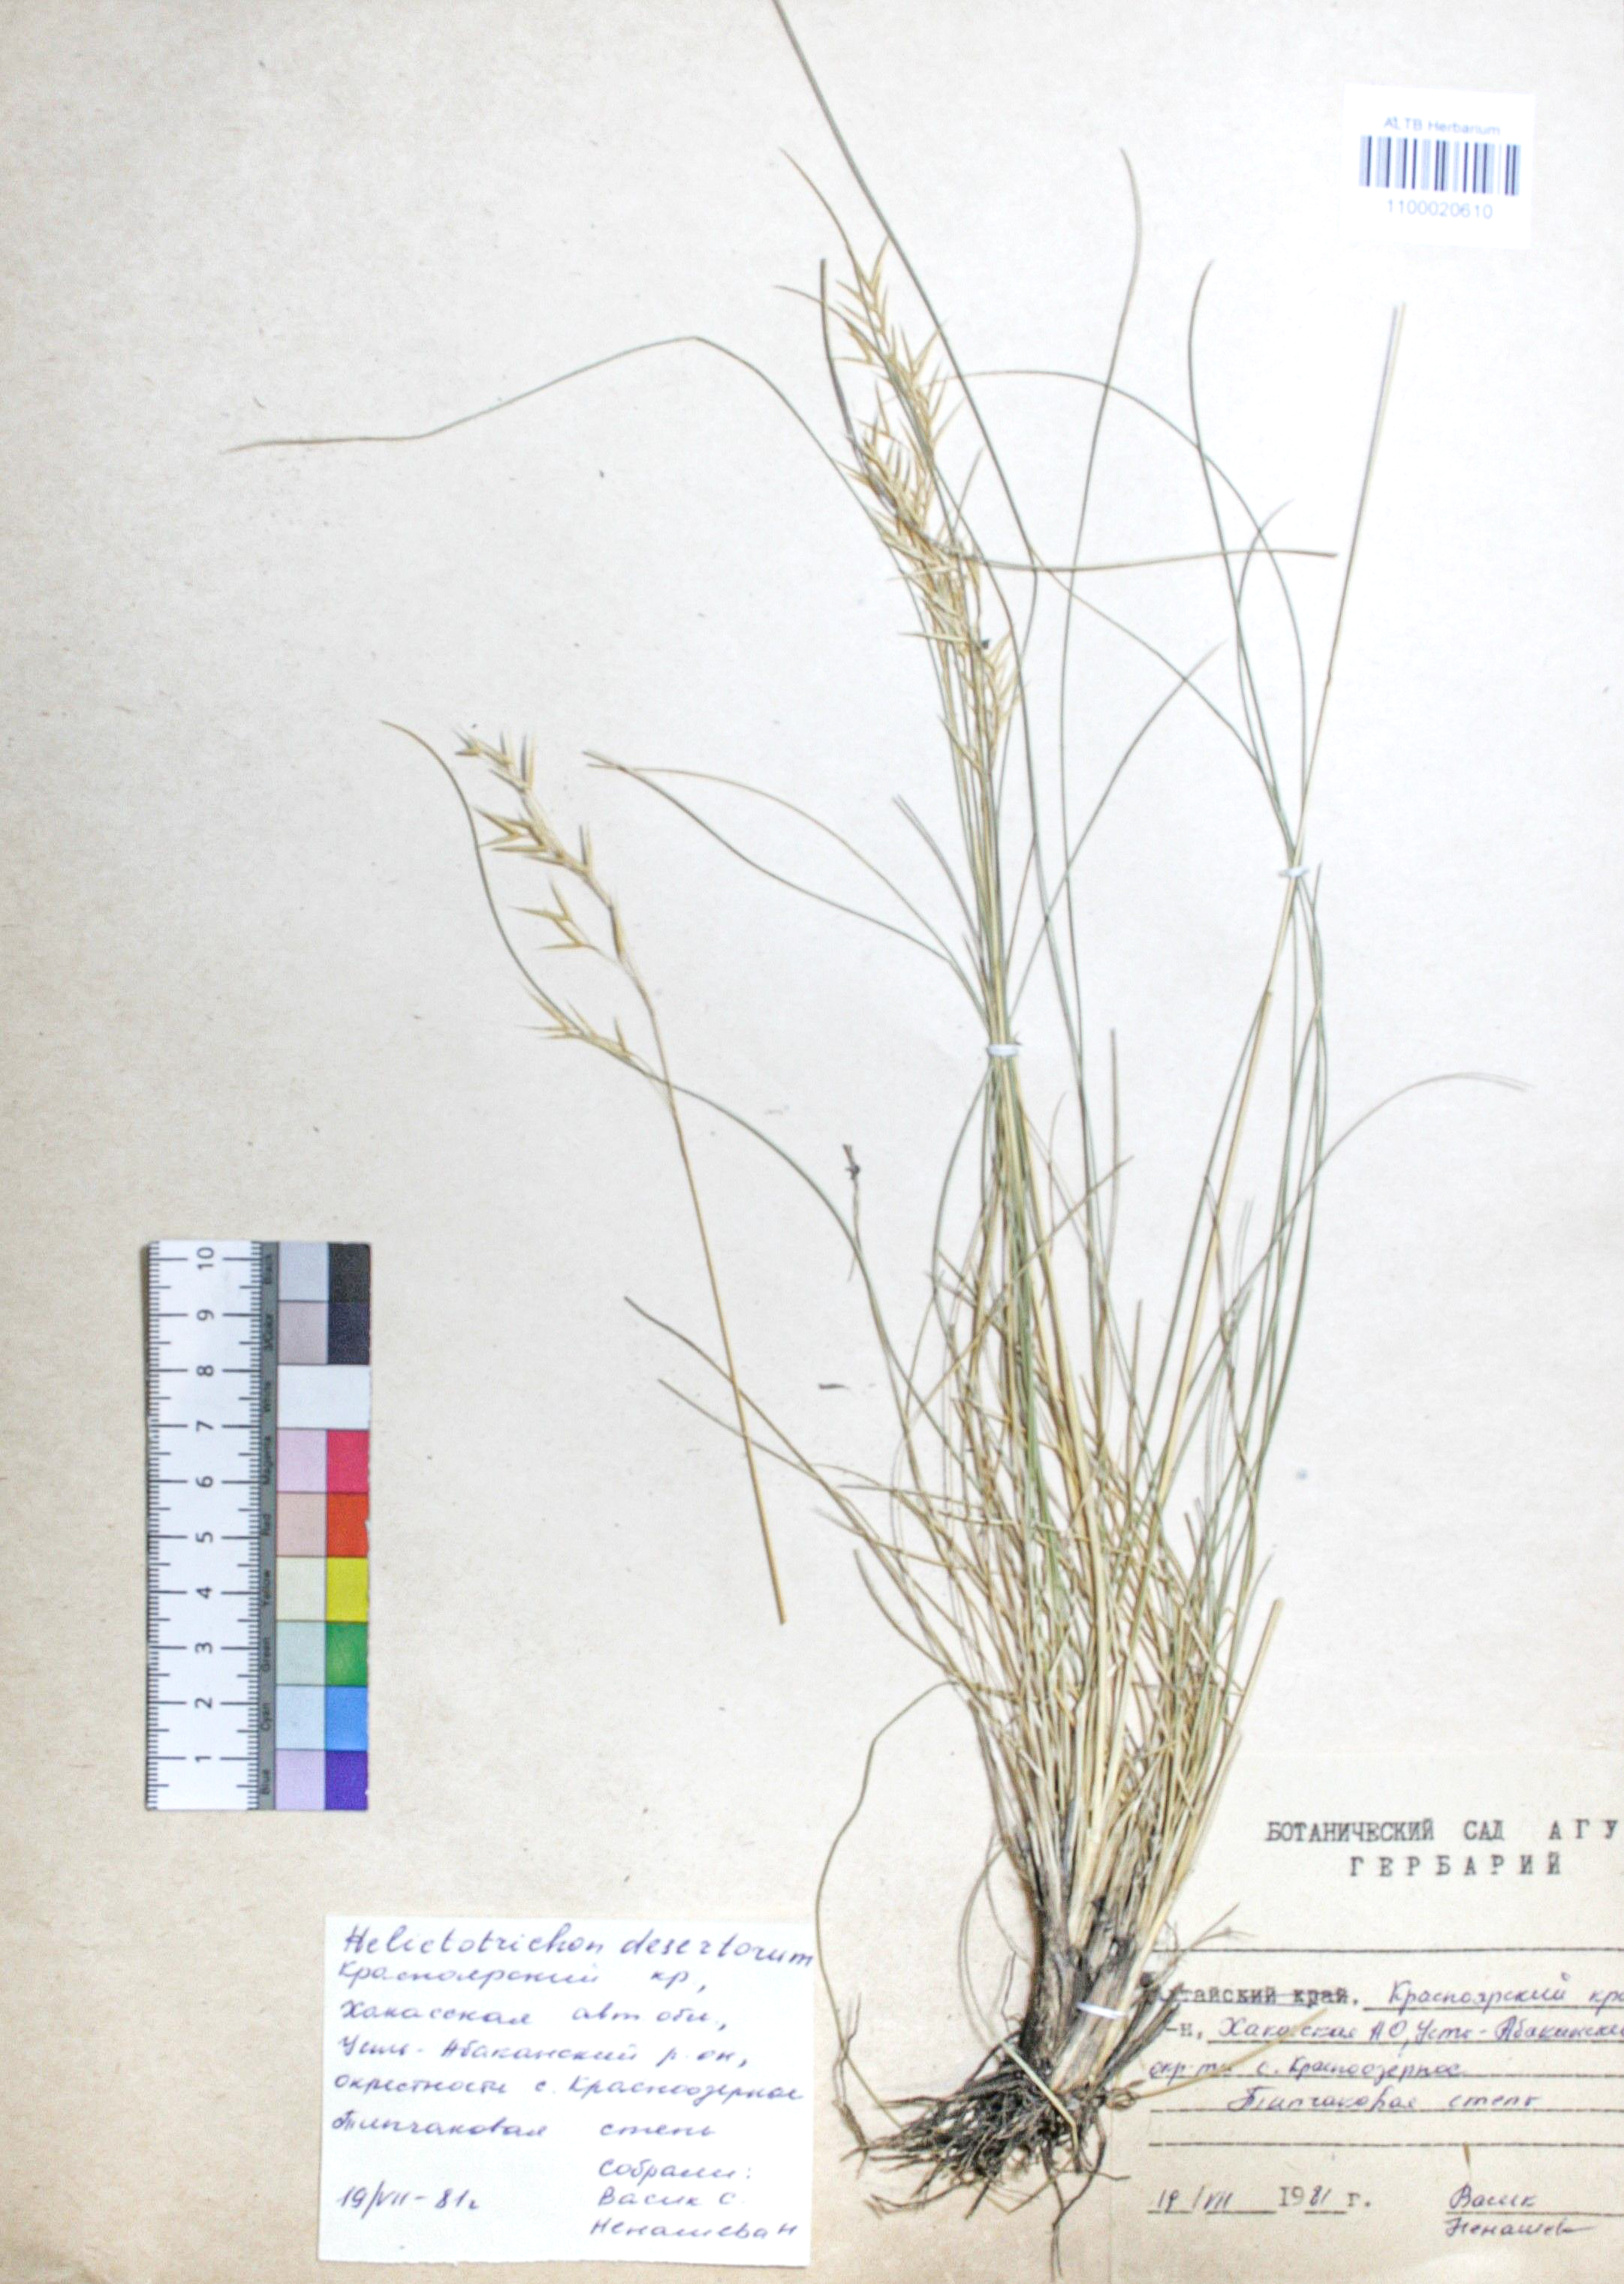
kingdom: Plantae
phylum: Tracheophyta
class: Liliopsida
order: Poales
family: Poaceae
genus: Helictotrichon
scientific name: Helictotrichon desertorum
